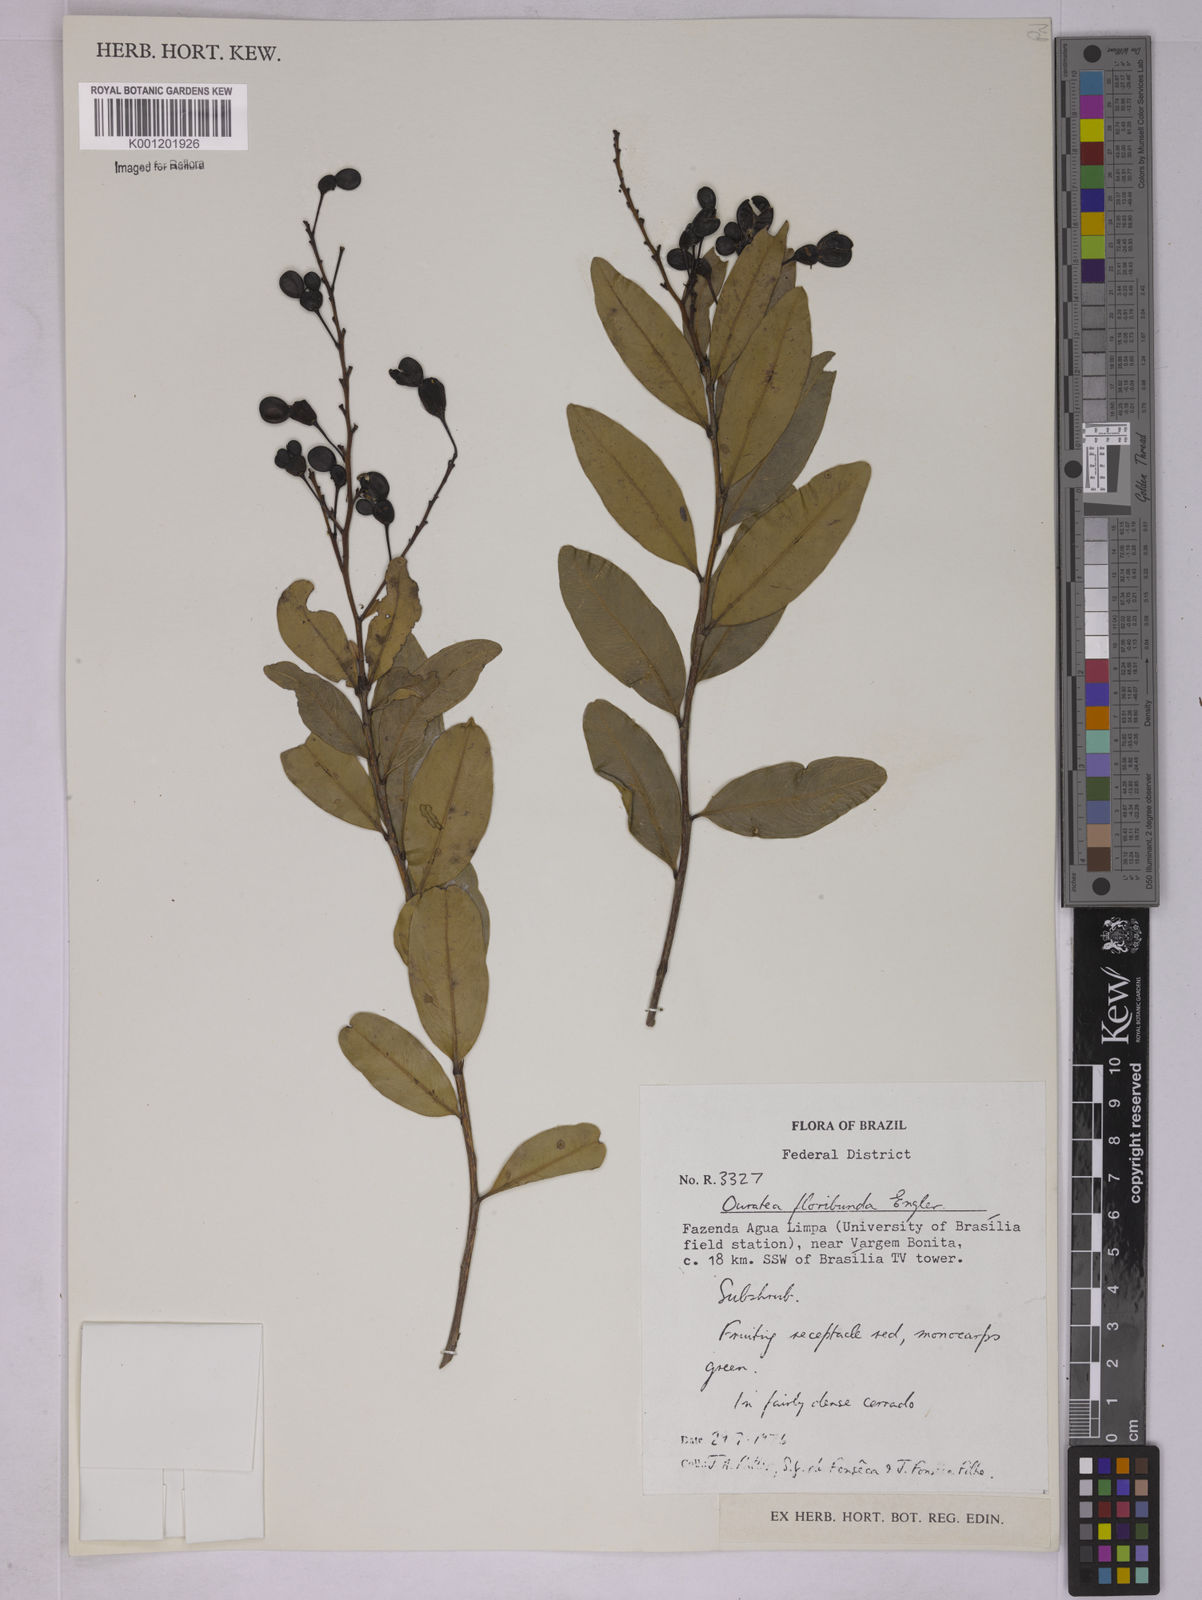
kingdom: Plantae
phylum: Tracheophyta
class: Magnoliopsida
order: Malpighiales
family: Ochnaceae
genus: Ouratea
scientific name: Ouratea floribunda
